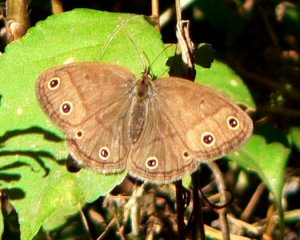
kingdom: Animalia
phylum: Arthropoda
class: Insecta
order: Lepidoptera
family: Nymphalidae
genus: Euptychia
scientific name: Euptychia cymela
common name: Little Wood Satyr
